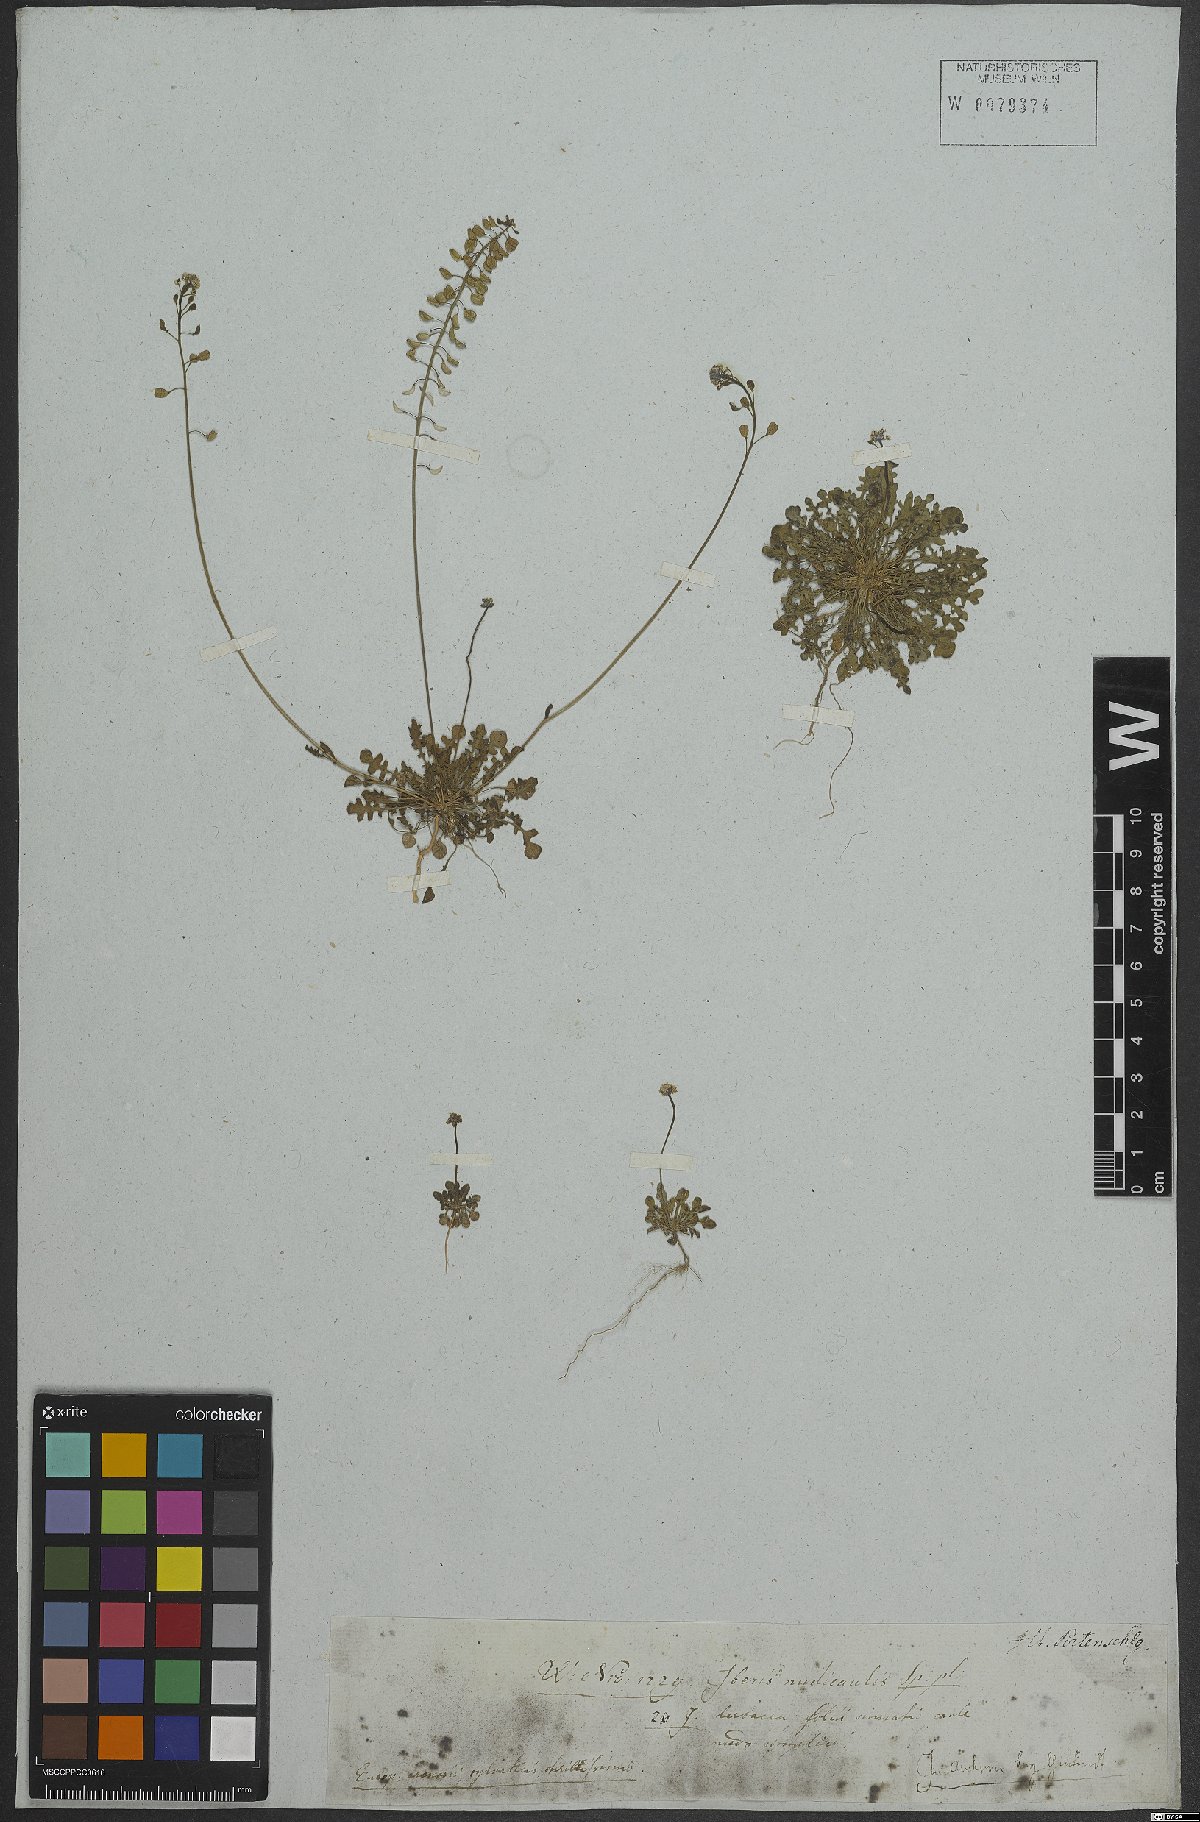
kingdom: Plantae
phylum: Tracheophyta
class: Magnoliopsida
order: Brassicales
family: Brassicaceae
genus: Teesdalia
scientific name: Teesdalia nudicaulis
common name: Shepherd's cress
